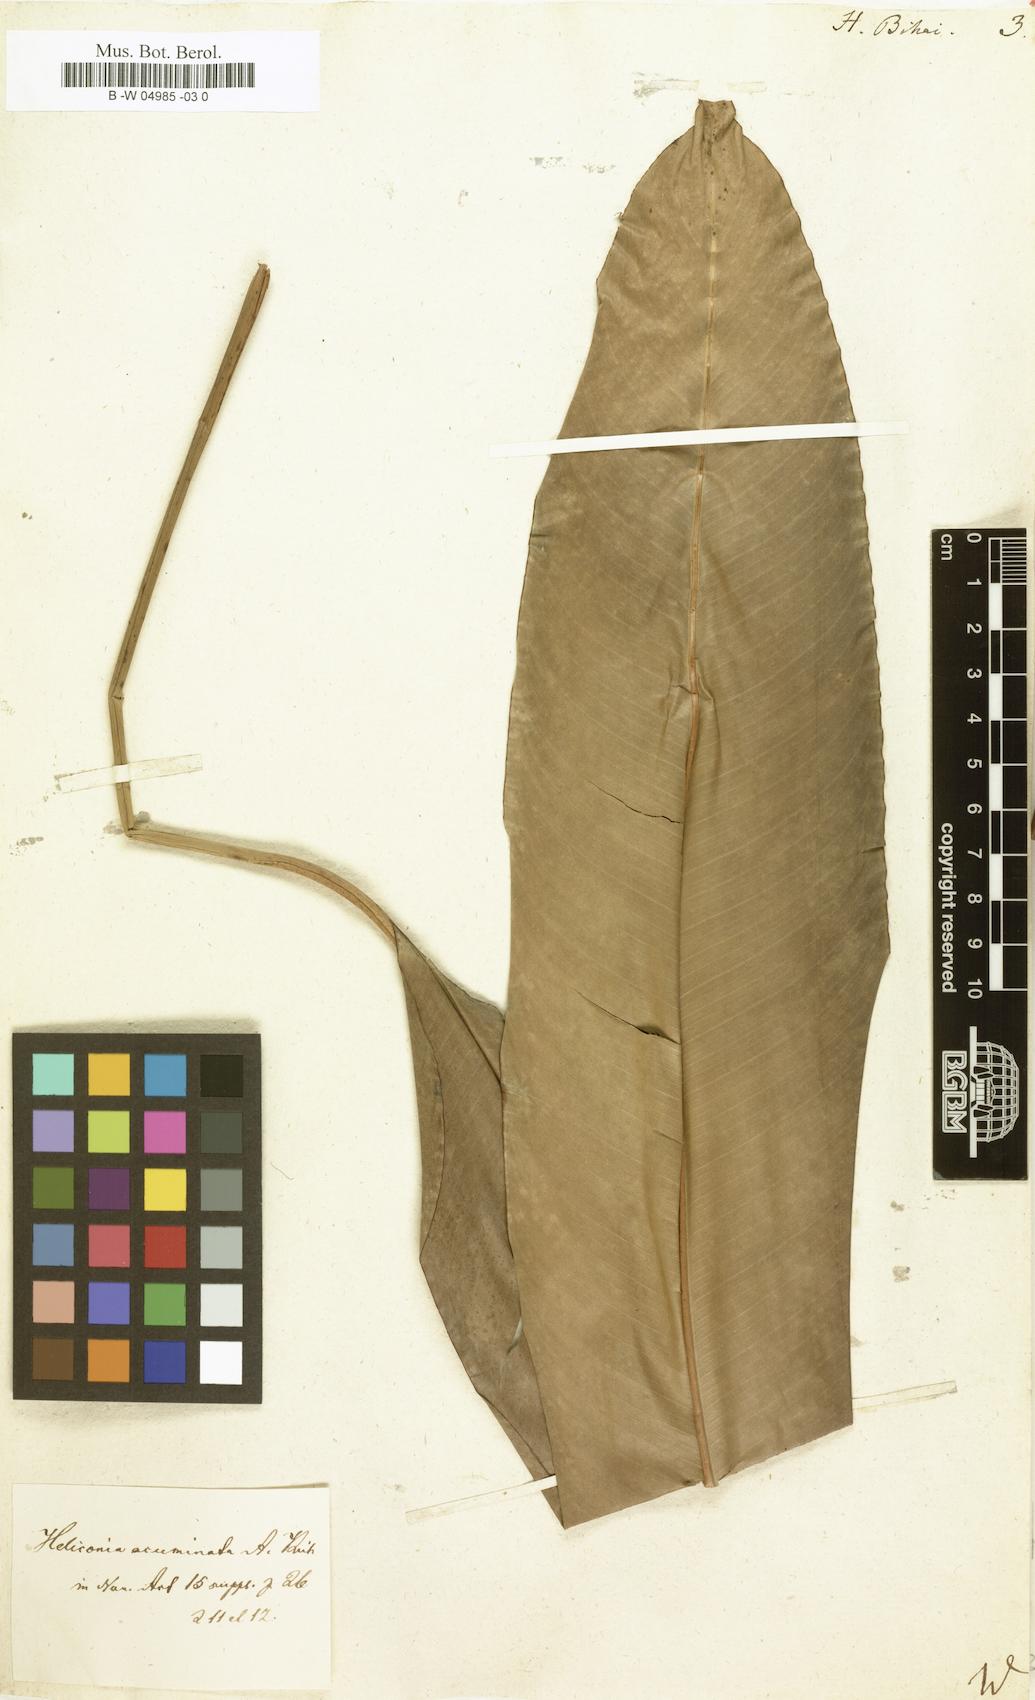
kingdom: Plantae
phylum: Tracheophyta
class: Liliopsida
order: Zingiberales
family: Heliconiaceae
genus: Heliconia
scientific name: Heliconia bihai
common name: Macaw flower
